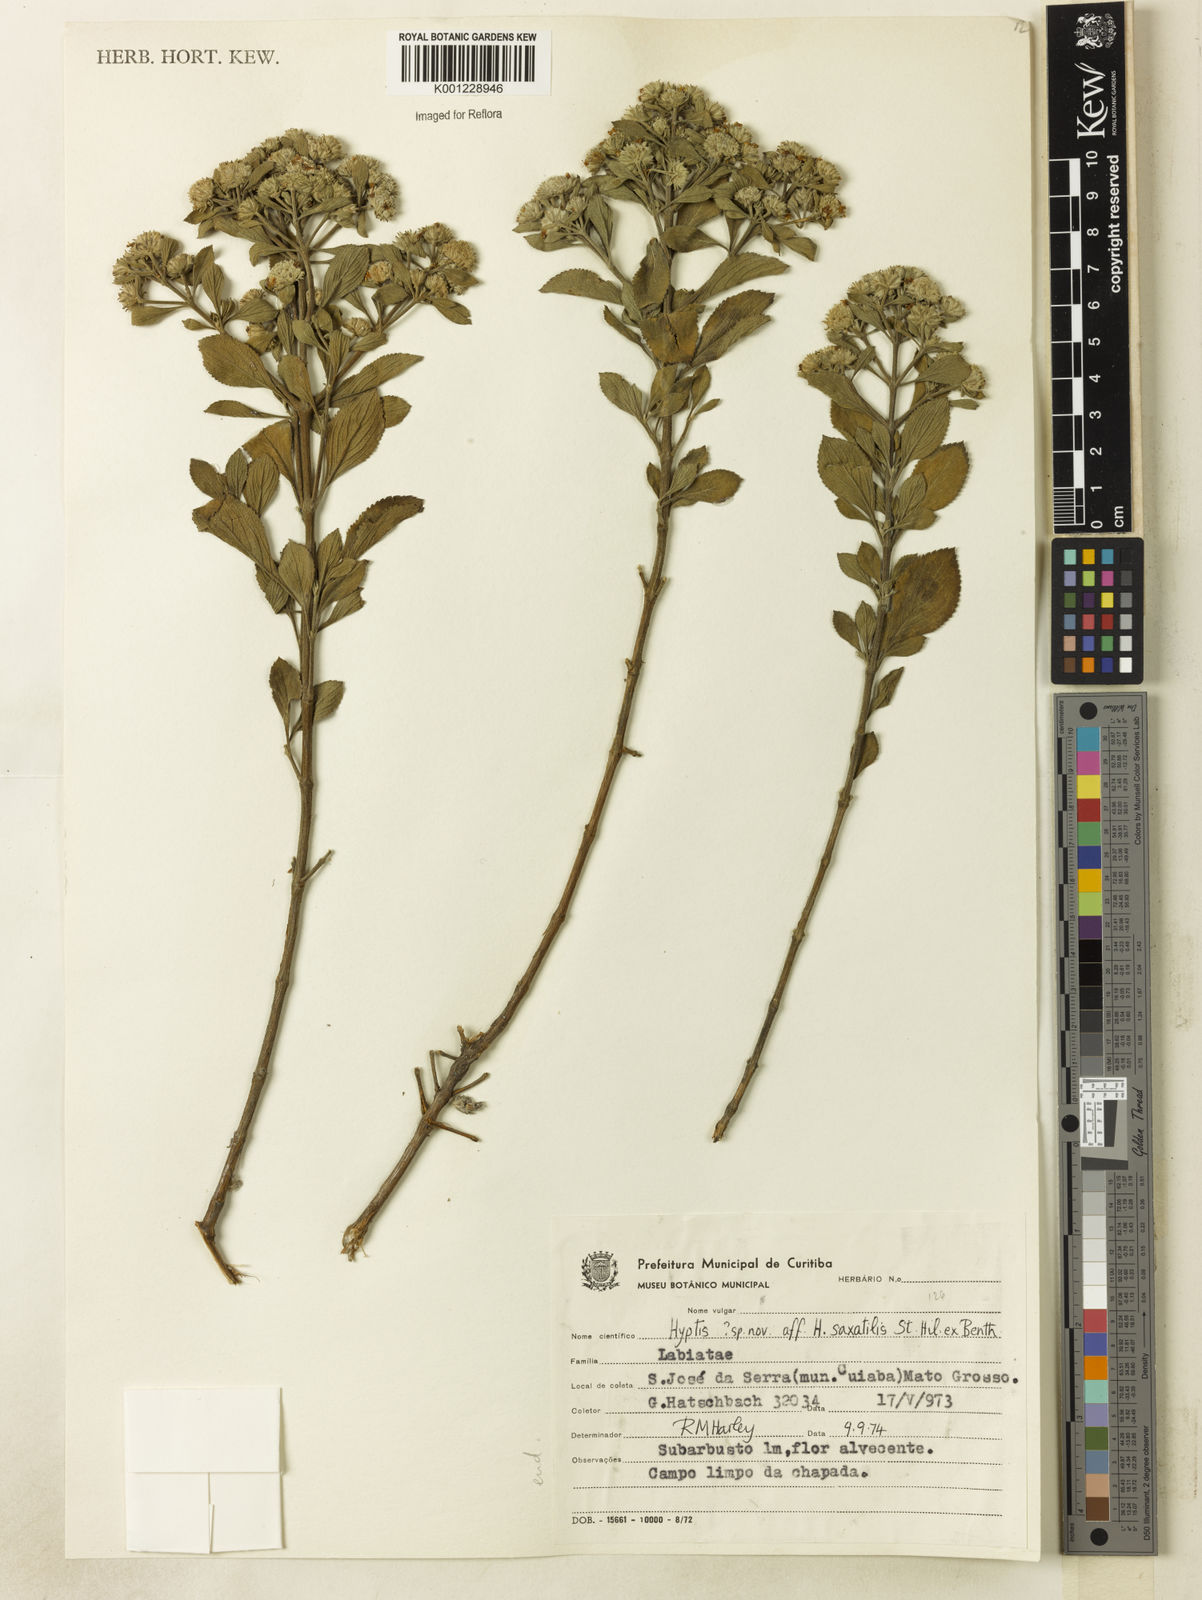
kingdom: Plantae
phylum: Tracheophyta
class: Magnoliopsida
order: Lamiales
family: Lamiaceae
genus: Hyptis
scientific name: Hyptis saxatilis
